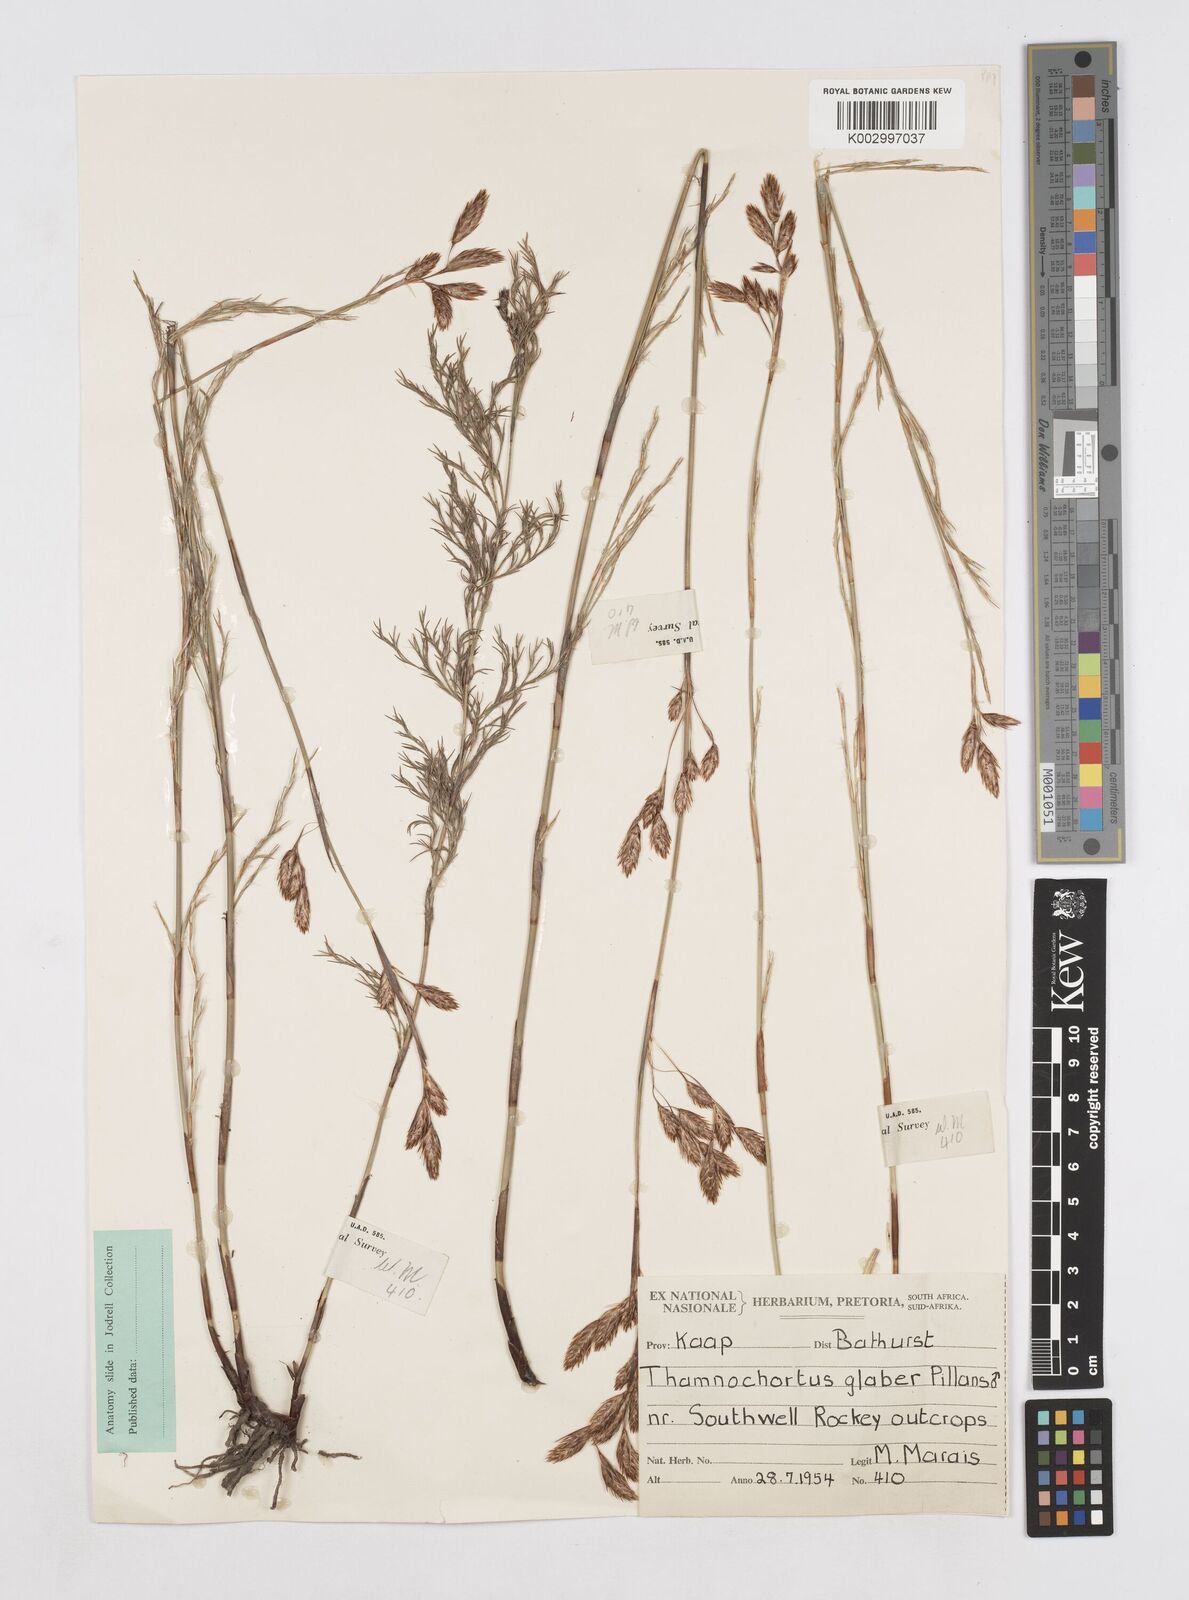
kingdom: Plantae
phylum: Tracheophyta
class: Liliopsida
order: Poales
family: Restionaceae
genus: Thamnochortus
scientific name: Thamnochortus glaber
